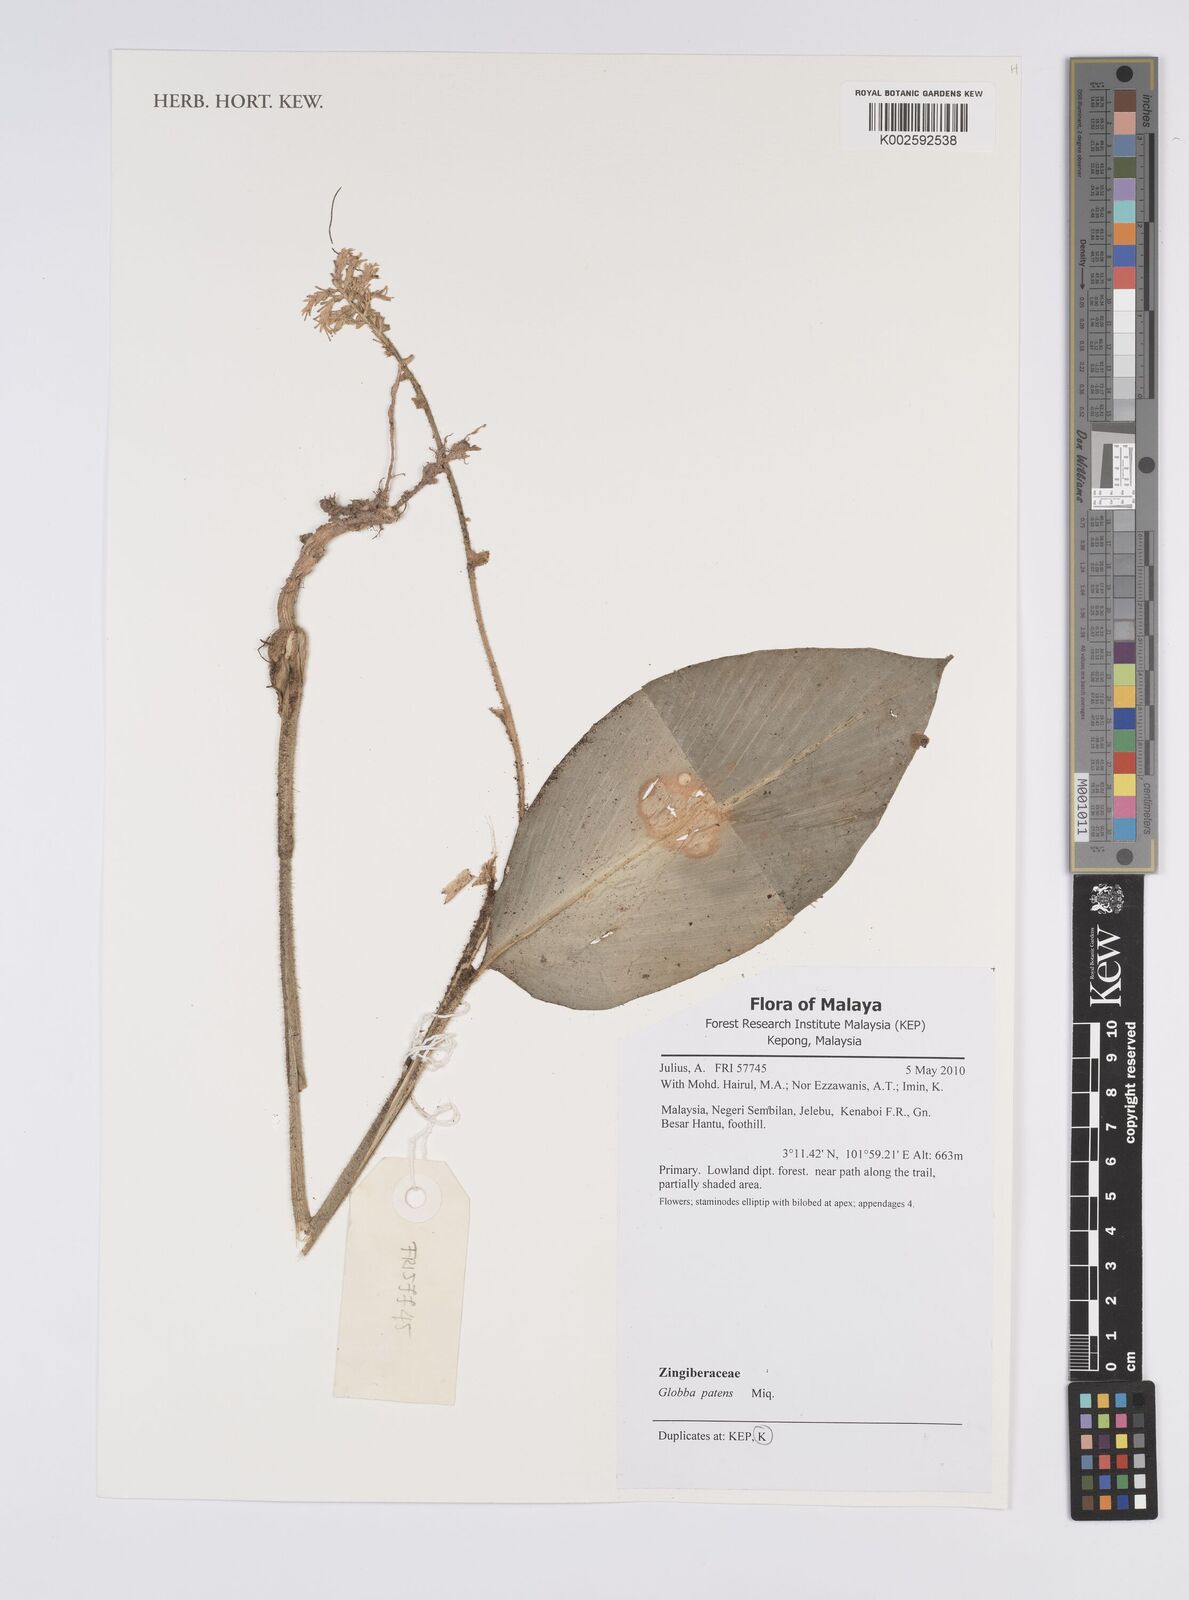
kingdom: Plantae
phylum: Tracheophyta
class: Liliopsida
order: Zingiberales
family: Zingiberaceae
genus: Globba
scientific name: Globba patens
